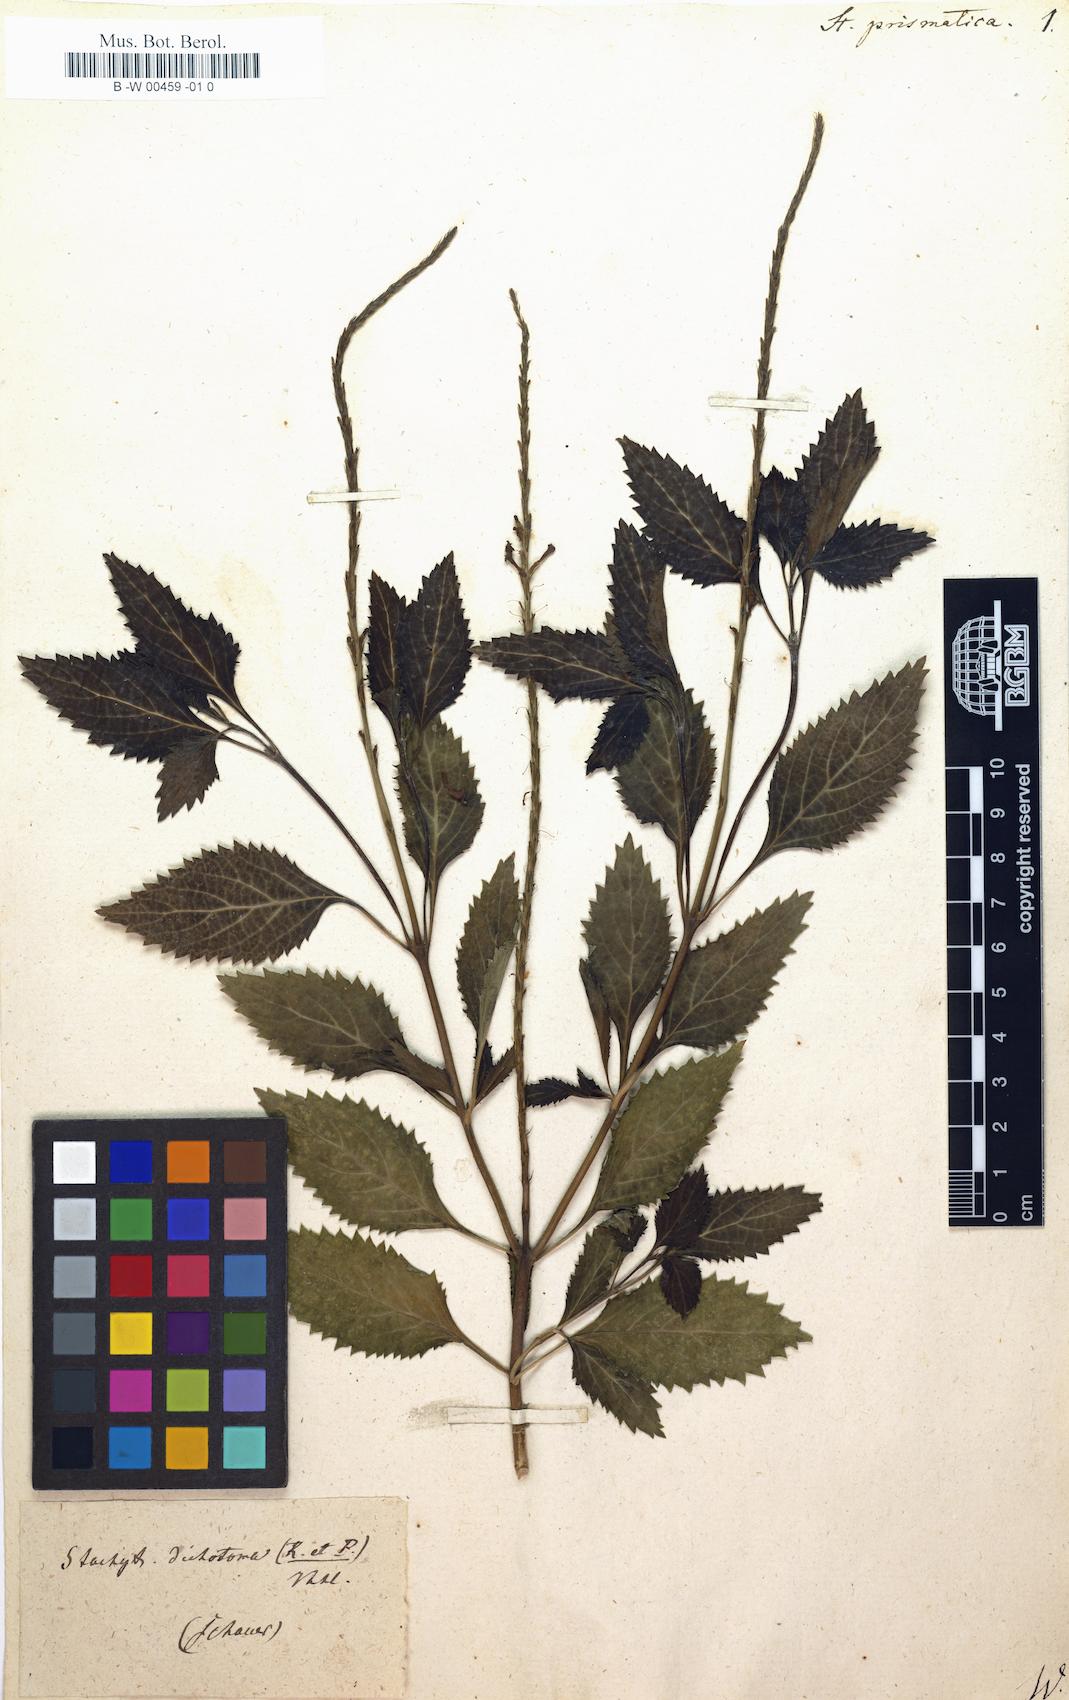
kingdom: Plantae
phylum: Tracheophyta
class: Magnoliopsida
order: Lamiales
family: Verbenaceae
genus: Bouchea
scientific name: Bouchea prismatica
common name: Vervine
